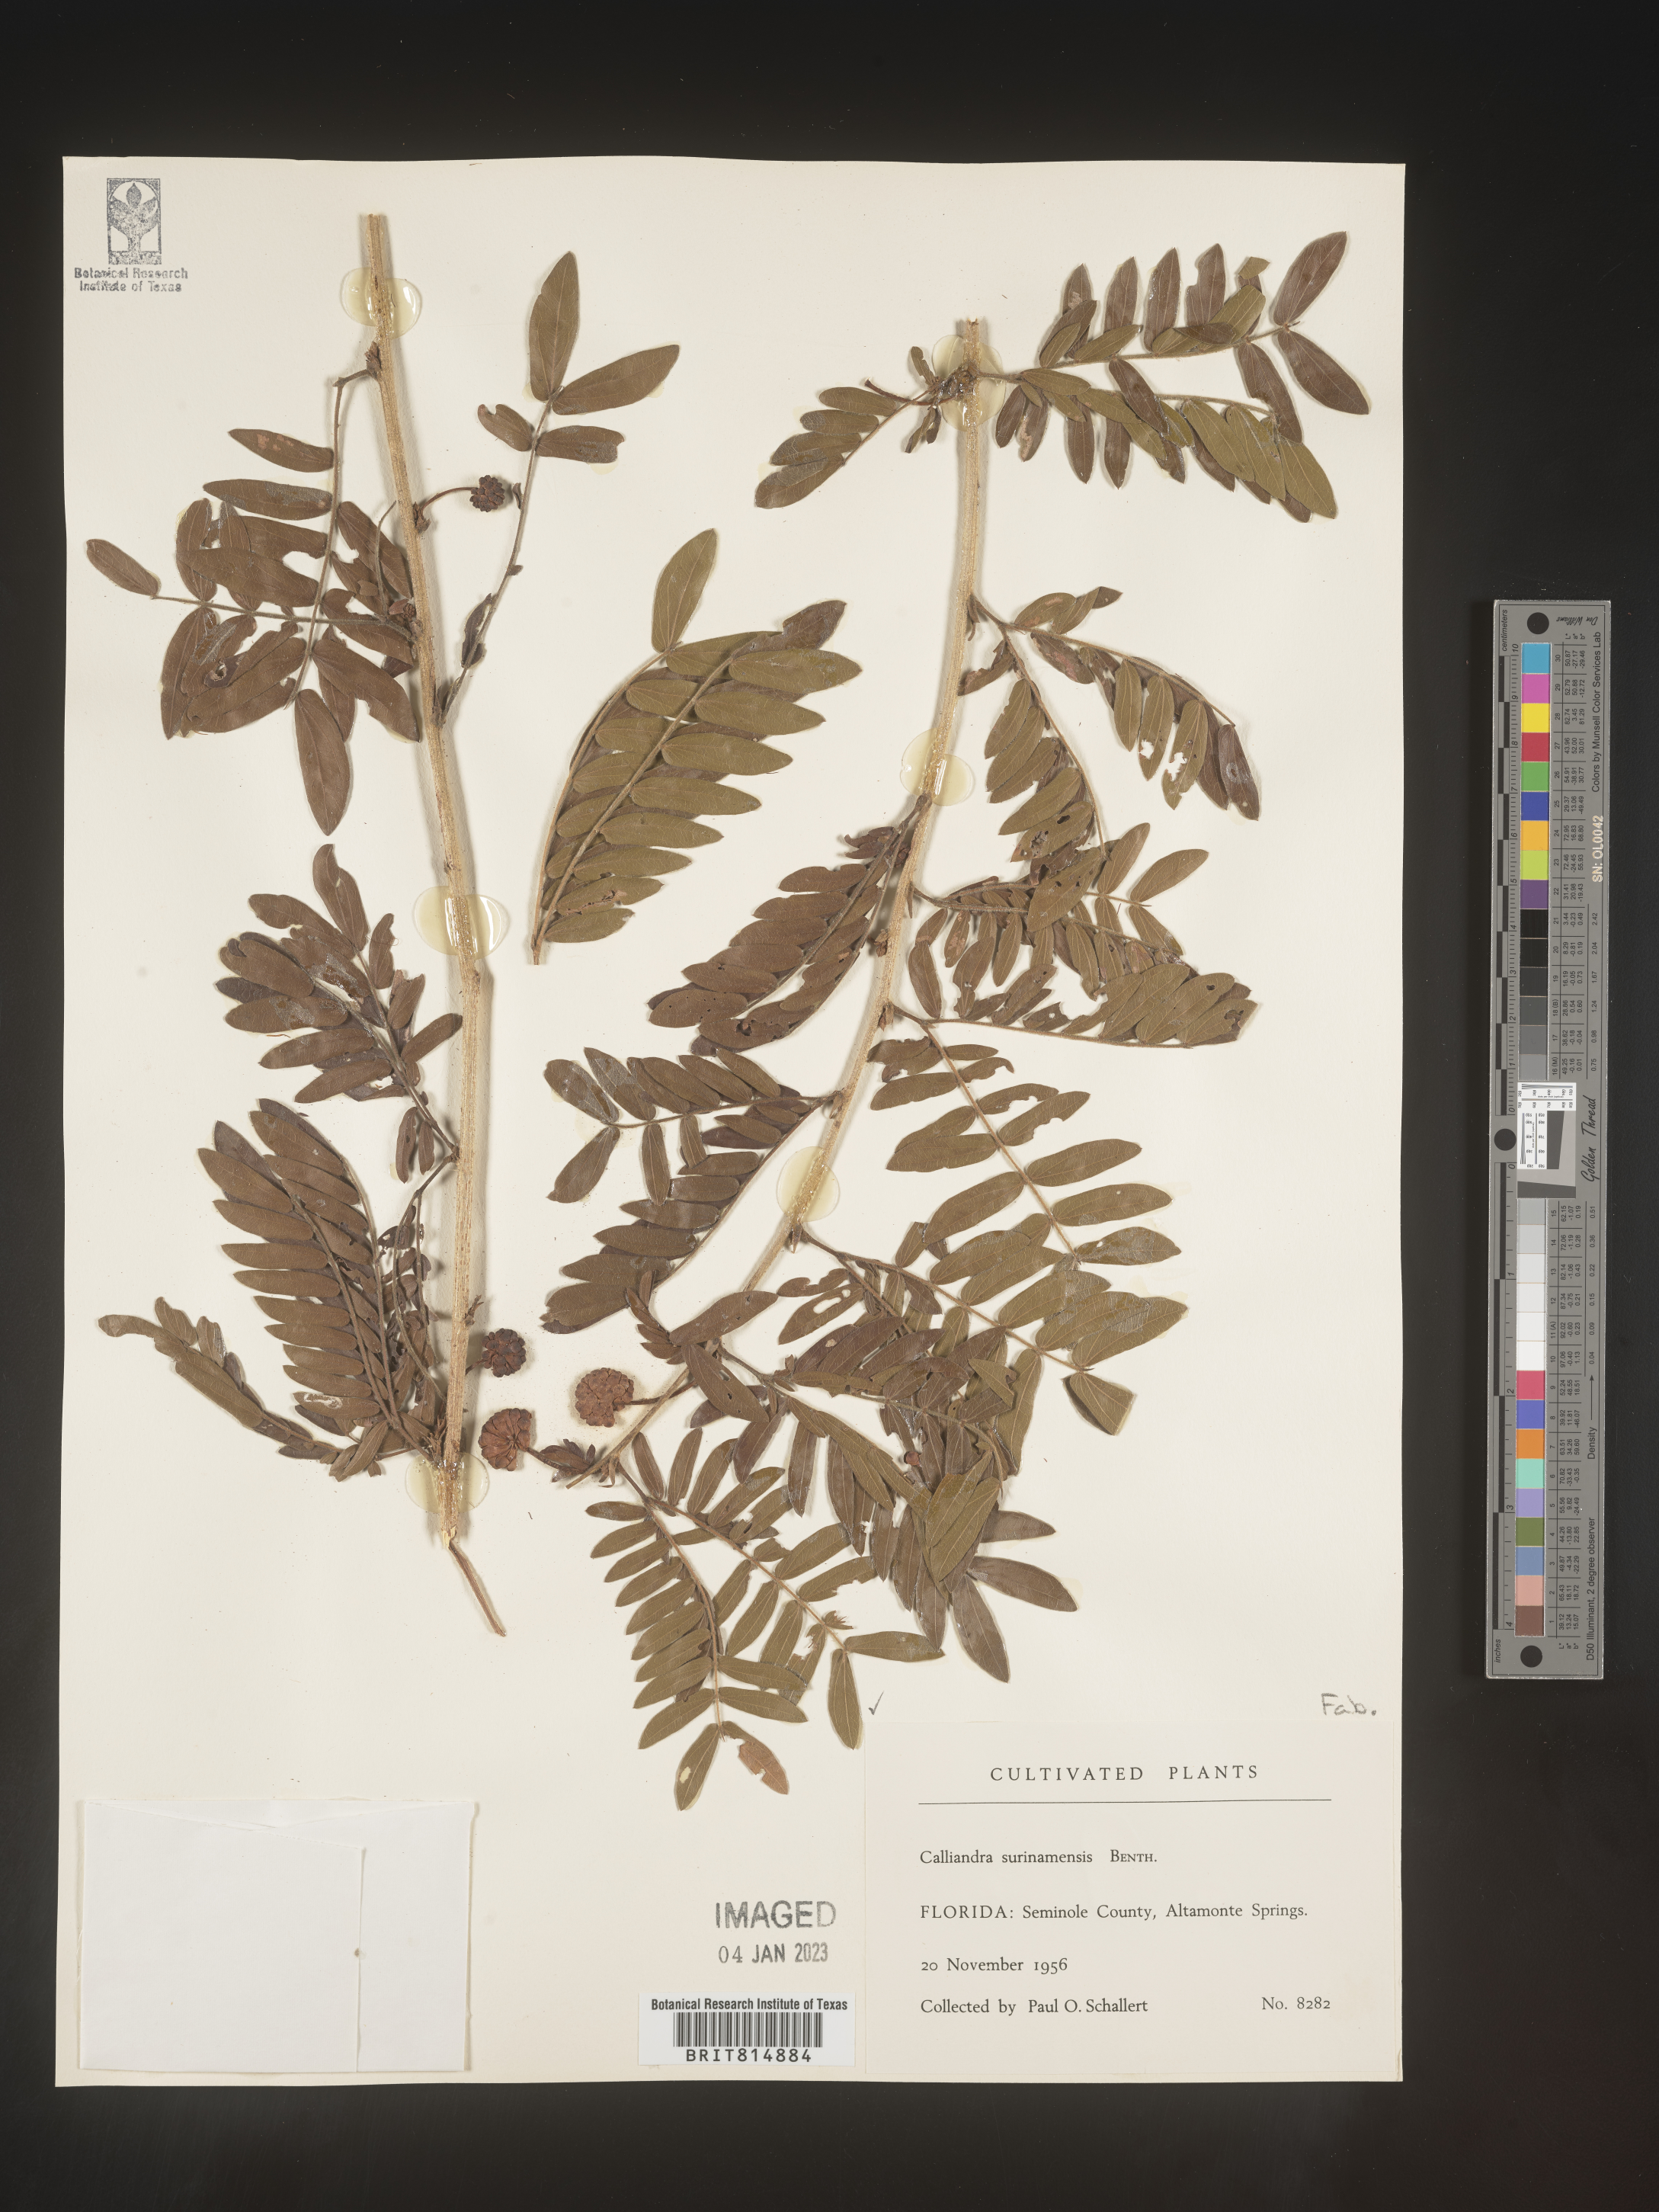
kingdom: Plantae
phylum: Tracheophyta
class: Magnoliopsida
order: Fabales
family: Fabaceae
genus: Calliandra
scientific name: Calliandra
